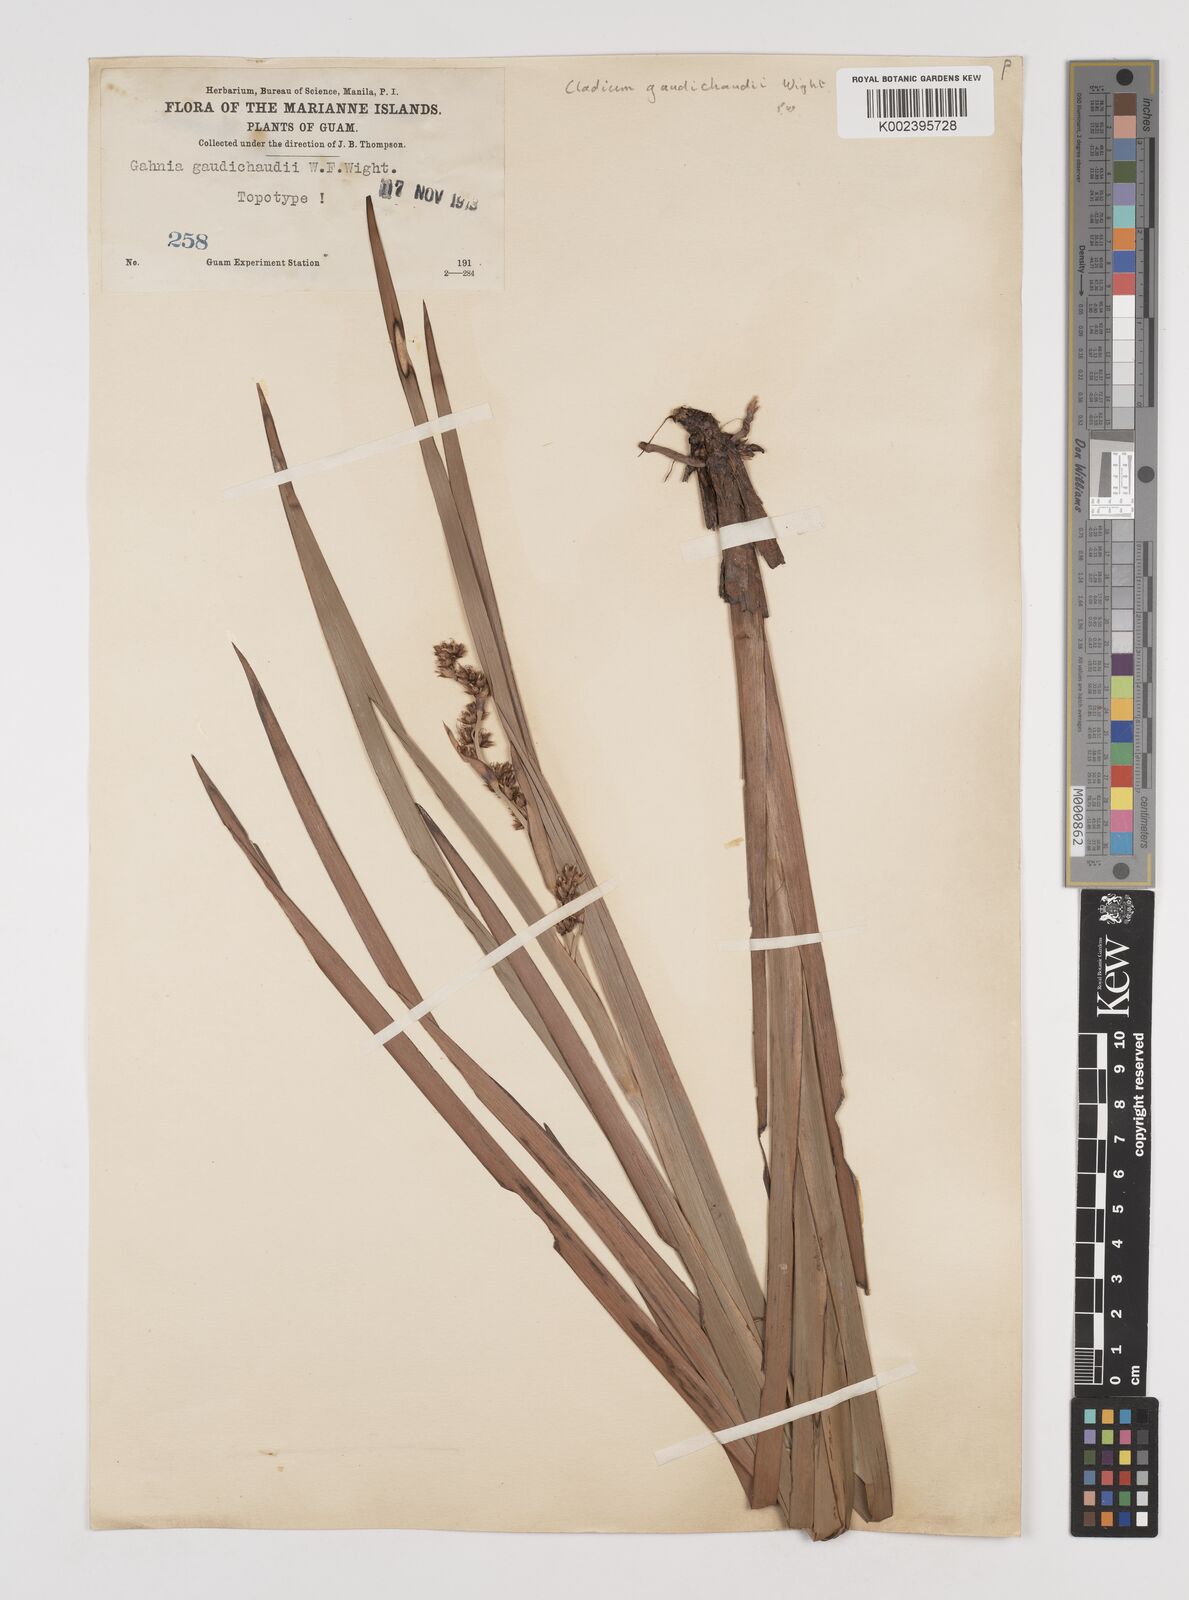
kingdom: Plantae
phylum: Tracheophyta
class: Liliopsida
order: Poales
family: Cyperaceae
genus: Machaerina
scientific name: Machaerina mariscoides
